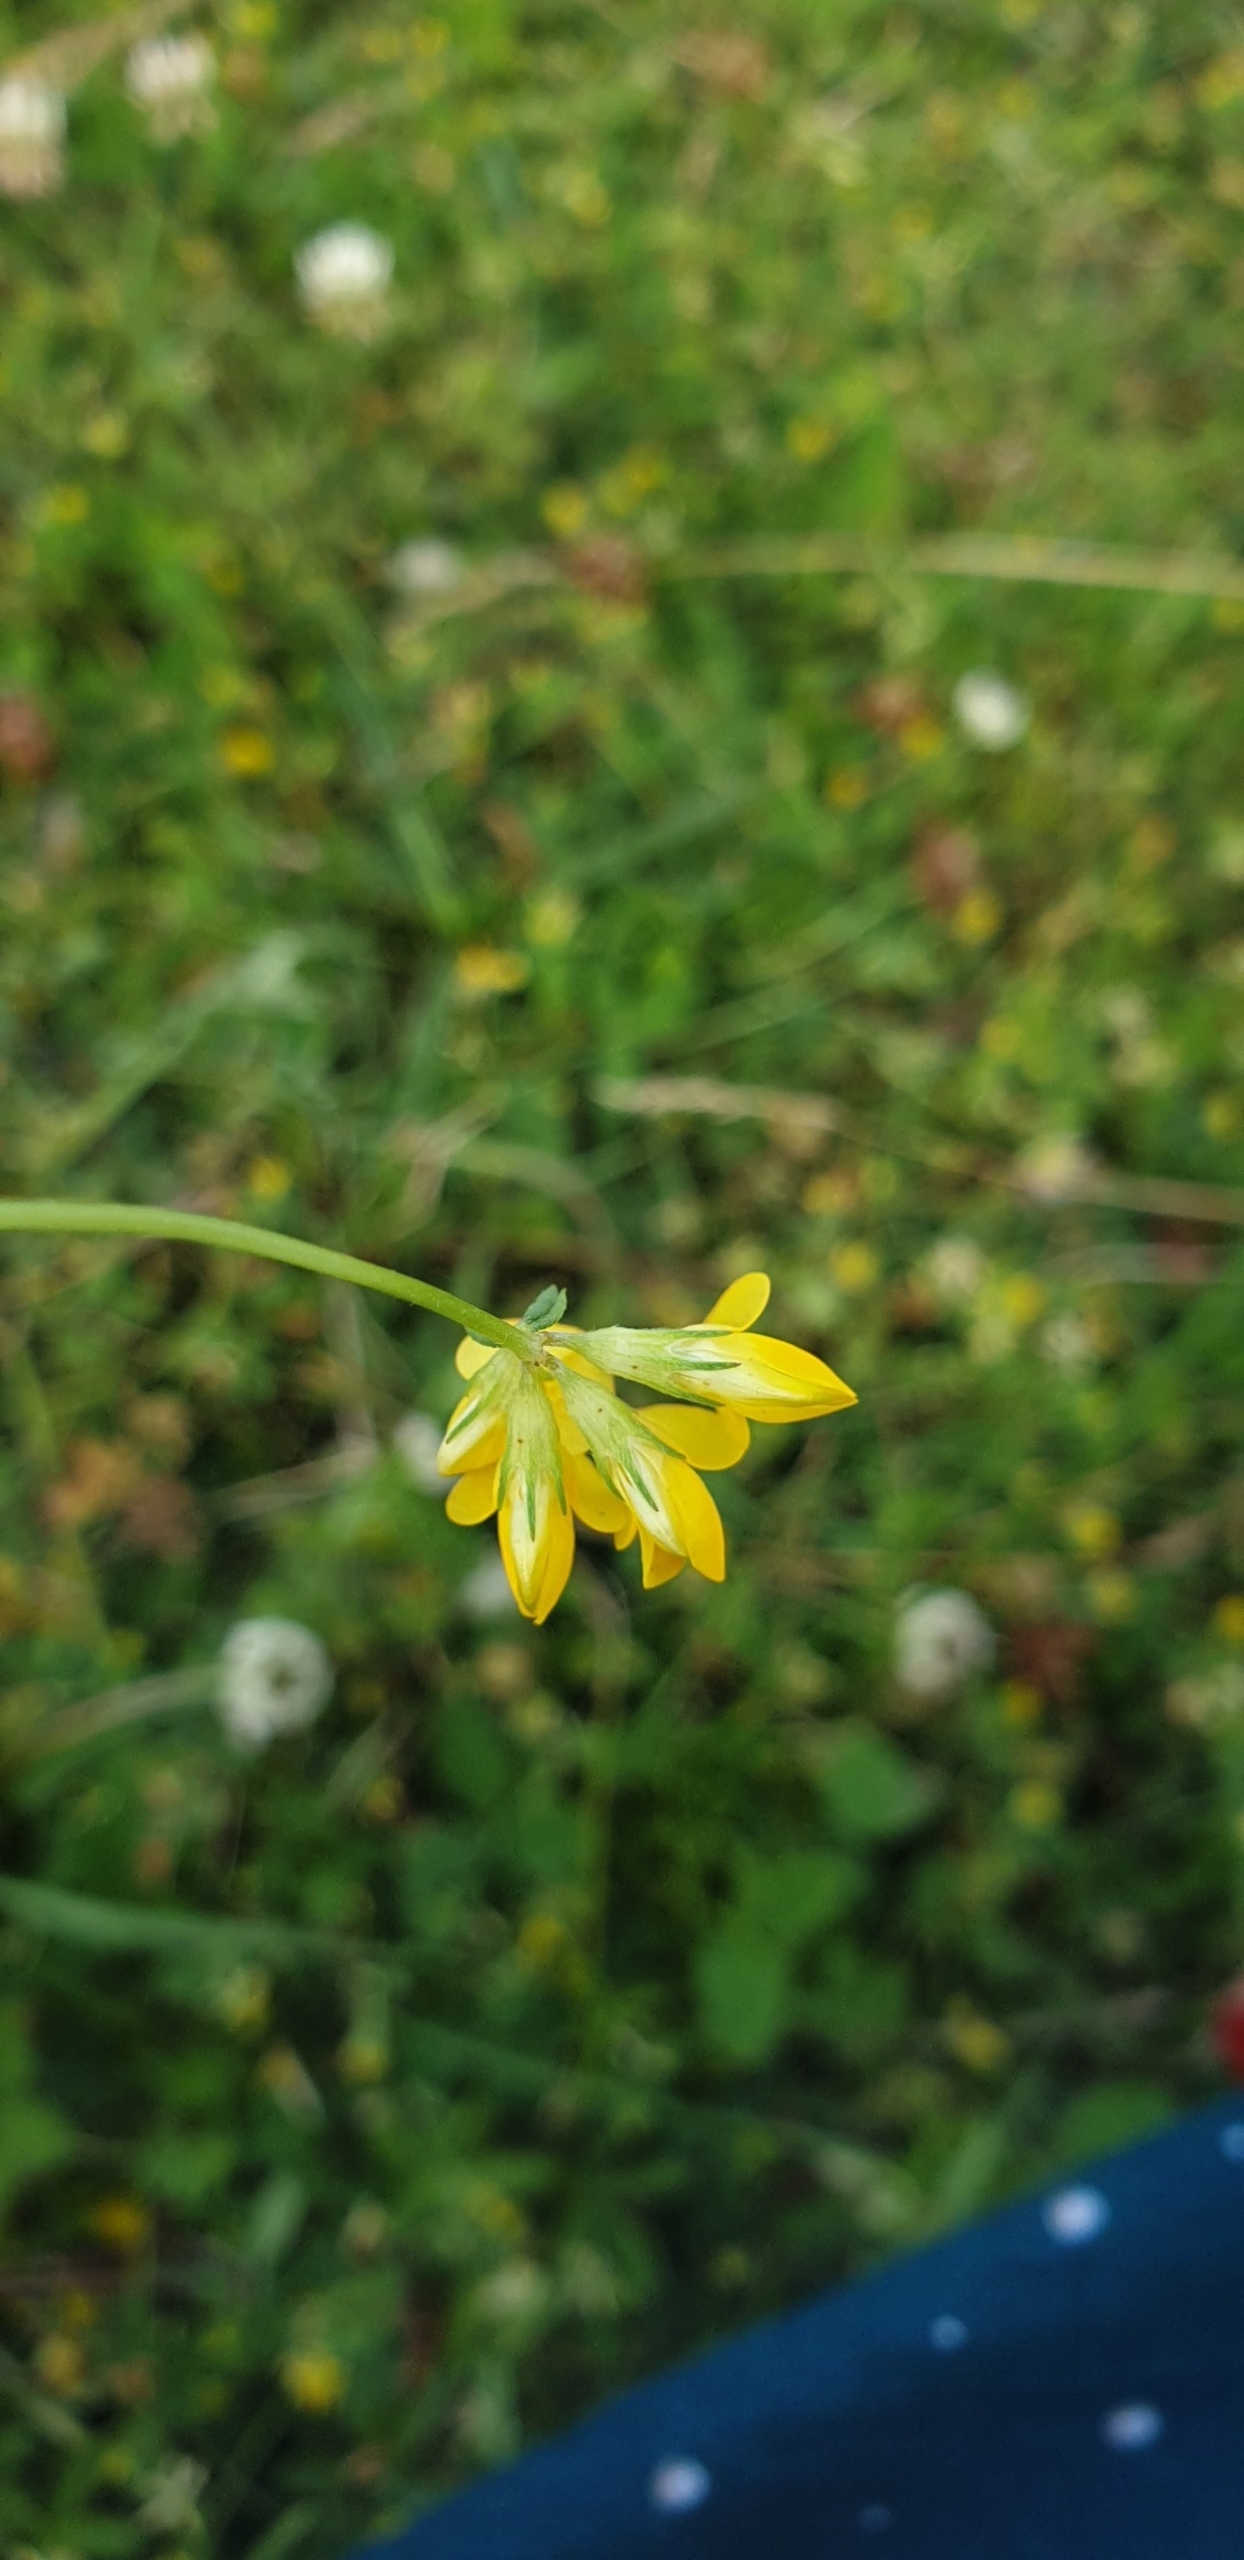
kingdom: Plantae
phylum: Tracheophyta
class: Magnoliopsida
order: Fabales
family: Fabaceae
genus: Lotus
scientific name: Lotus corniculatus
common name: Almindelig kællingetand
